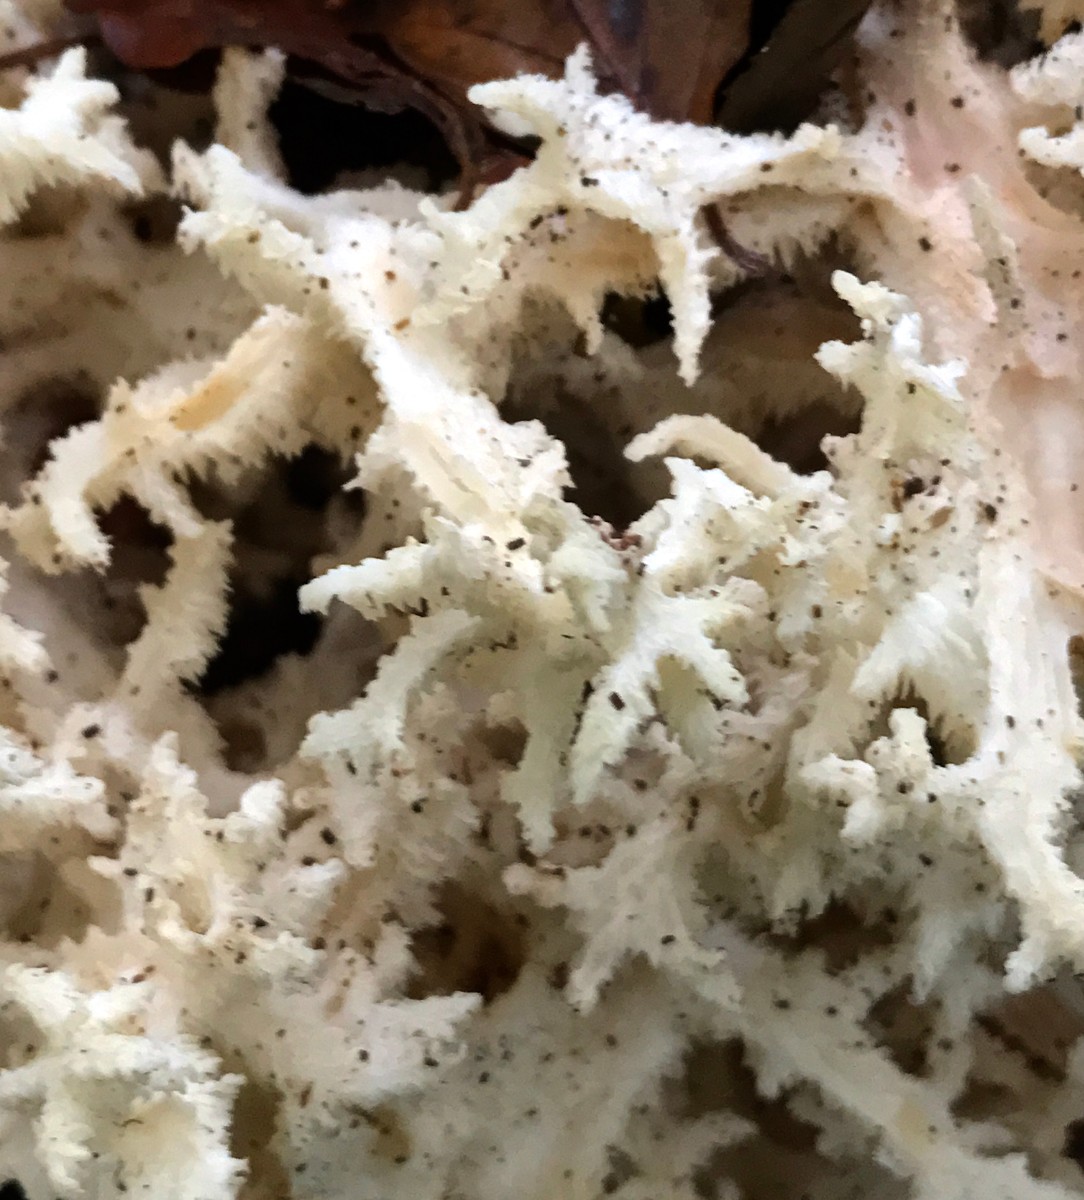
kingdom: Fungi
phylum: Basidiomycota
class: Agaricomycetes
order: Russulales
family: Hericiaceae
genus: Hericium
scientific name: Hericium coralloides
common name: koralpigsvamp
